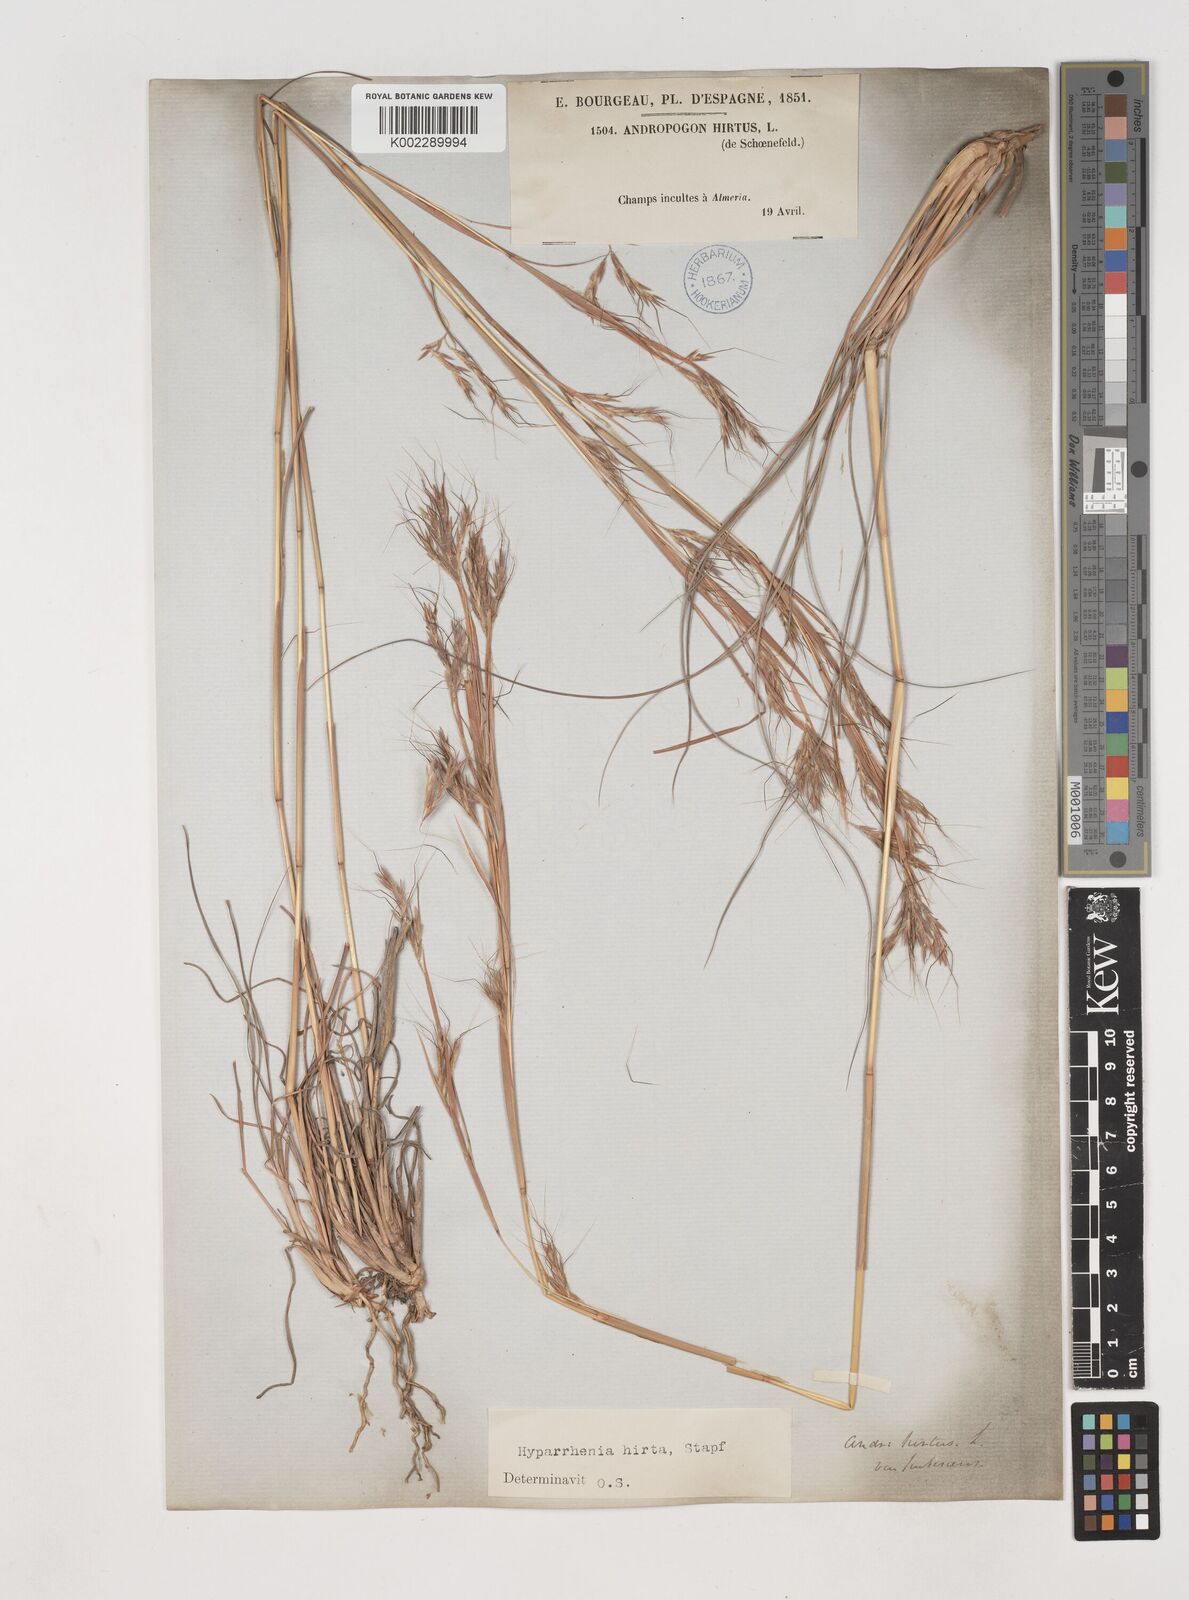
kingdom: Plantae
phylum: Tracheophyta
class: Liliopsida
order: Poales
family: Poaceae
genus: Hyparrhenia
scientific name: Hyparrhenia hirta
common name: Thatching grass
